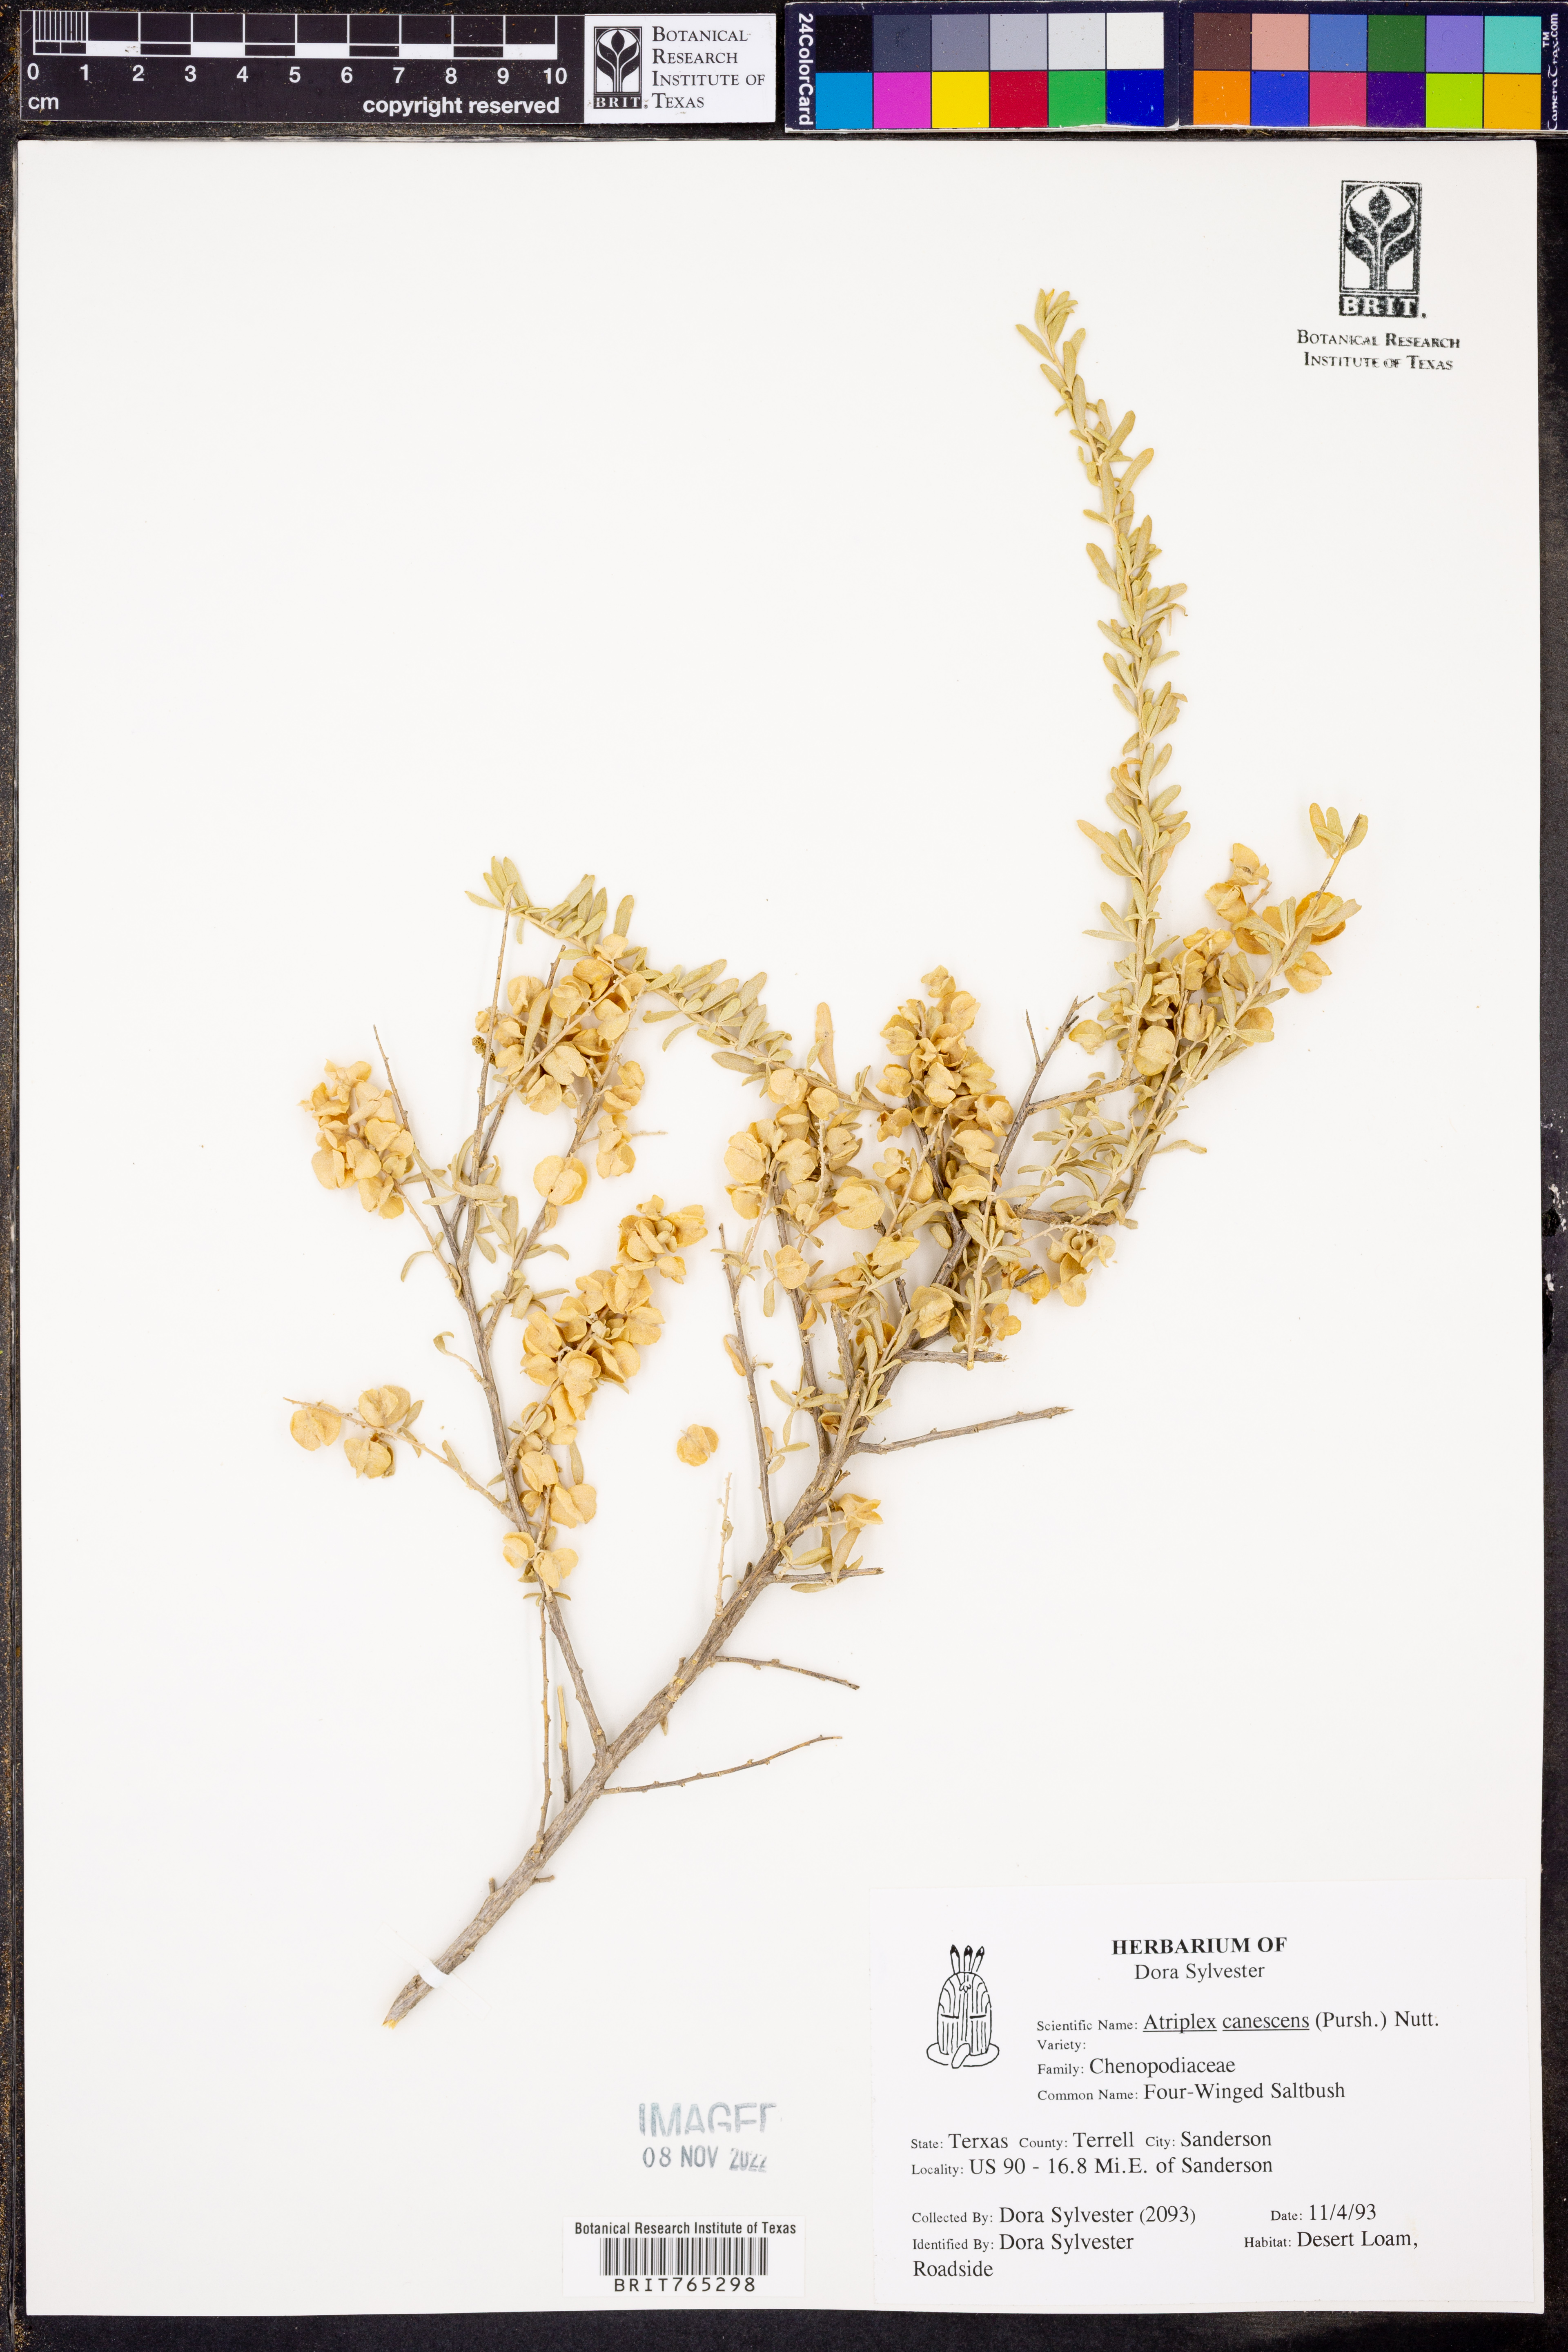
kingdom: Plantae
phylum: Tracheophyta
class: Magnoliopsida
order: Caryophyllales
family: Amaranthaceae
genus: Atriplex
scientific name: Atriplex canescens
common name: Four-wing saltbush
